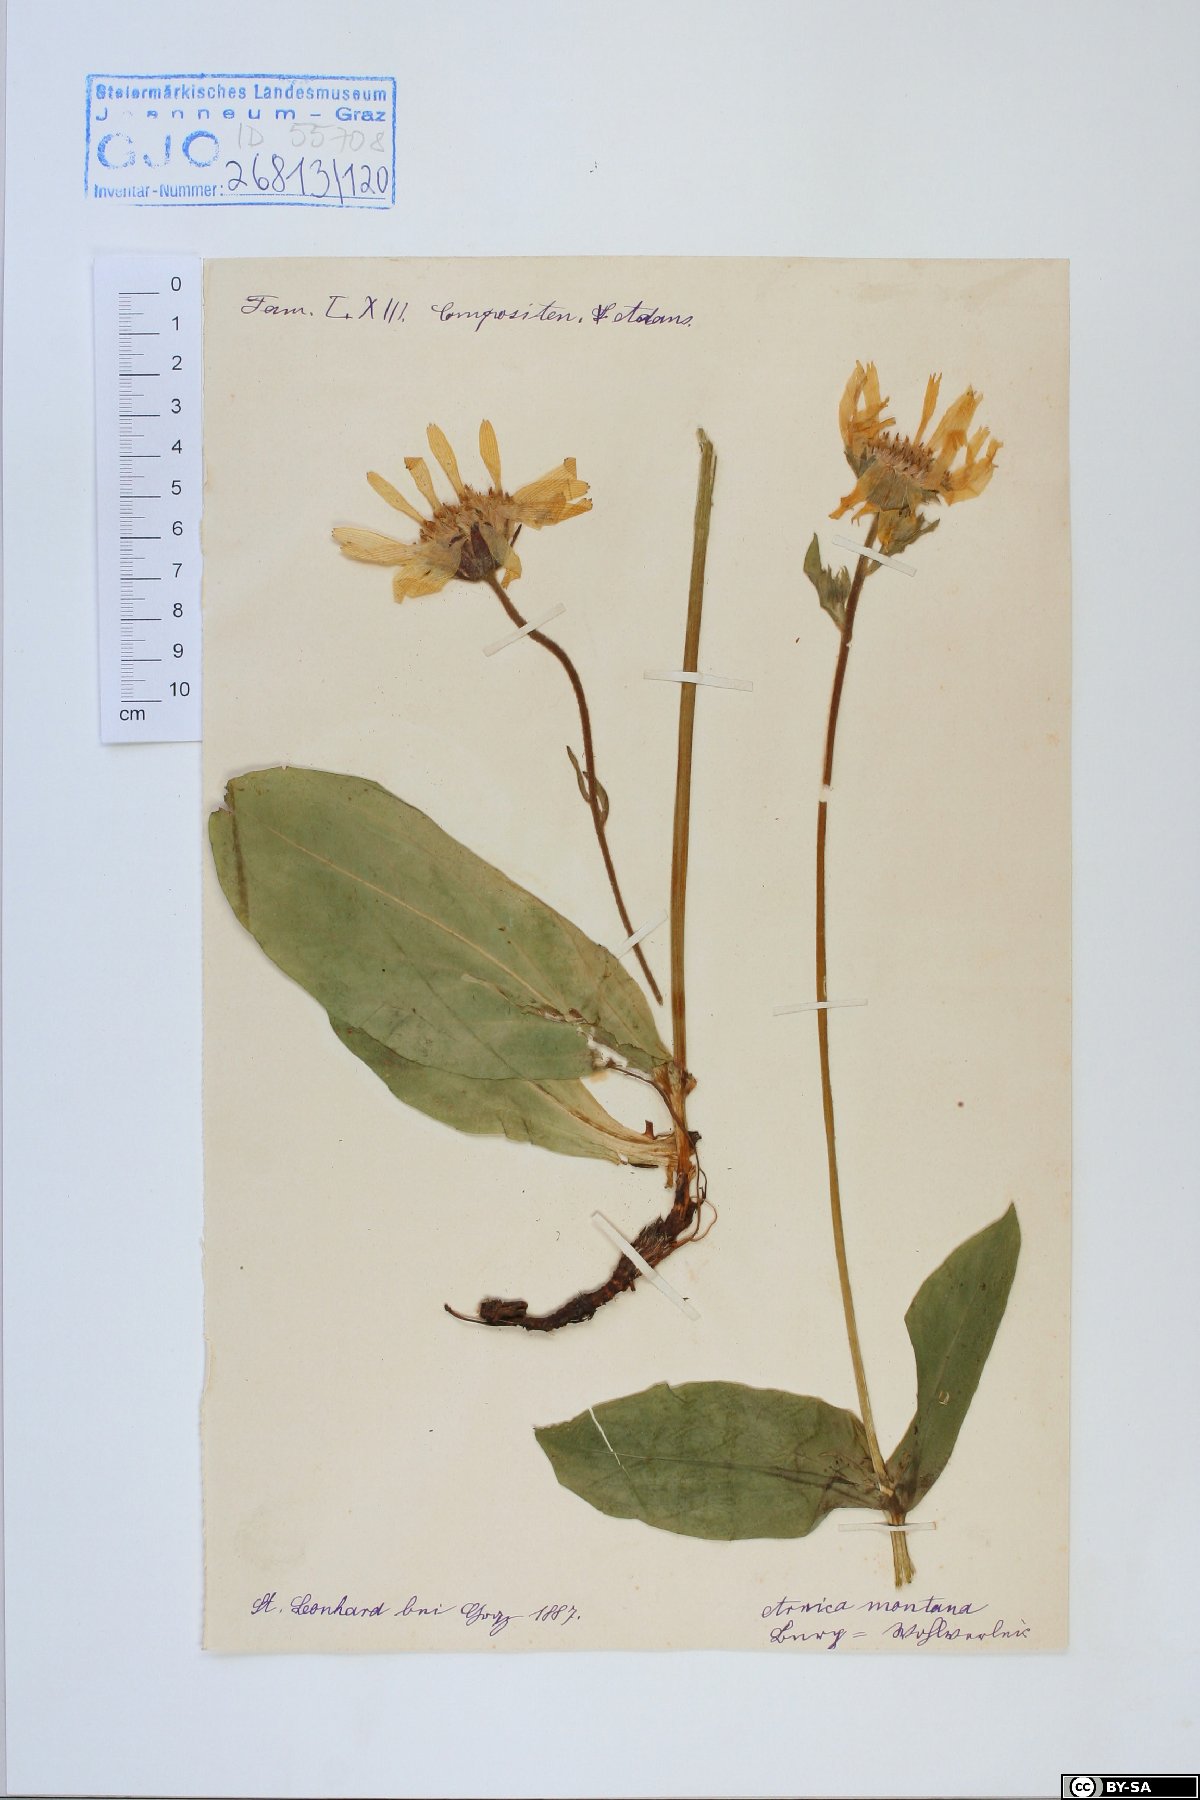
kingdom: Plantae
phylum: Tracheophyta
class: Magnoliopsida
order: Asterales
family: Asteraceae
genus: Arnica
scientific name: Arnica montana
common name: Leopard's bane
